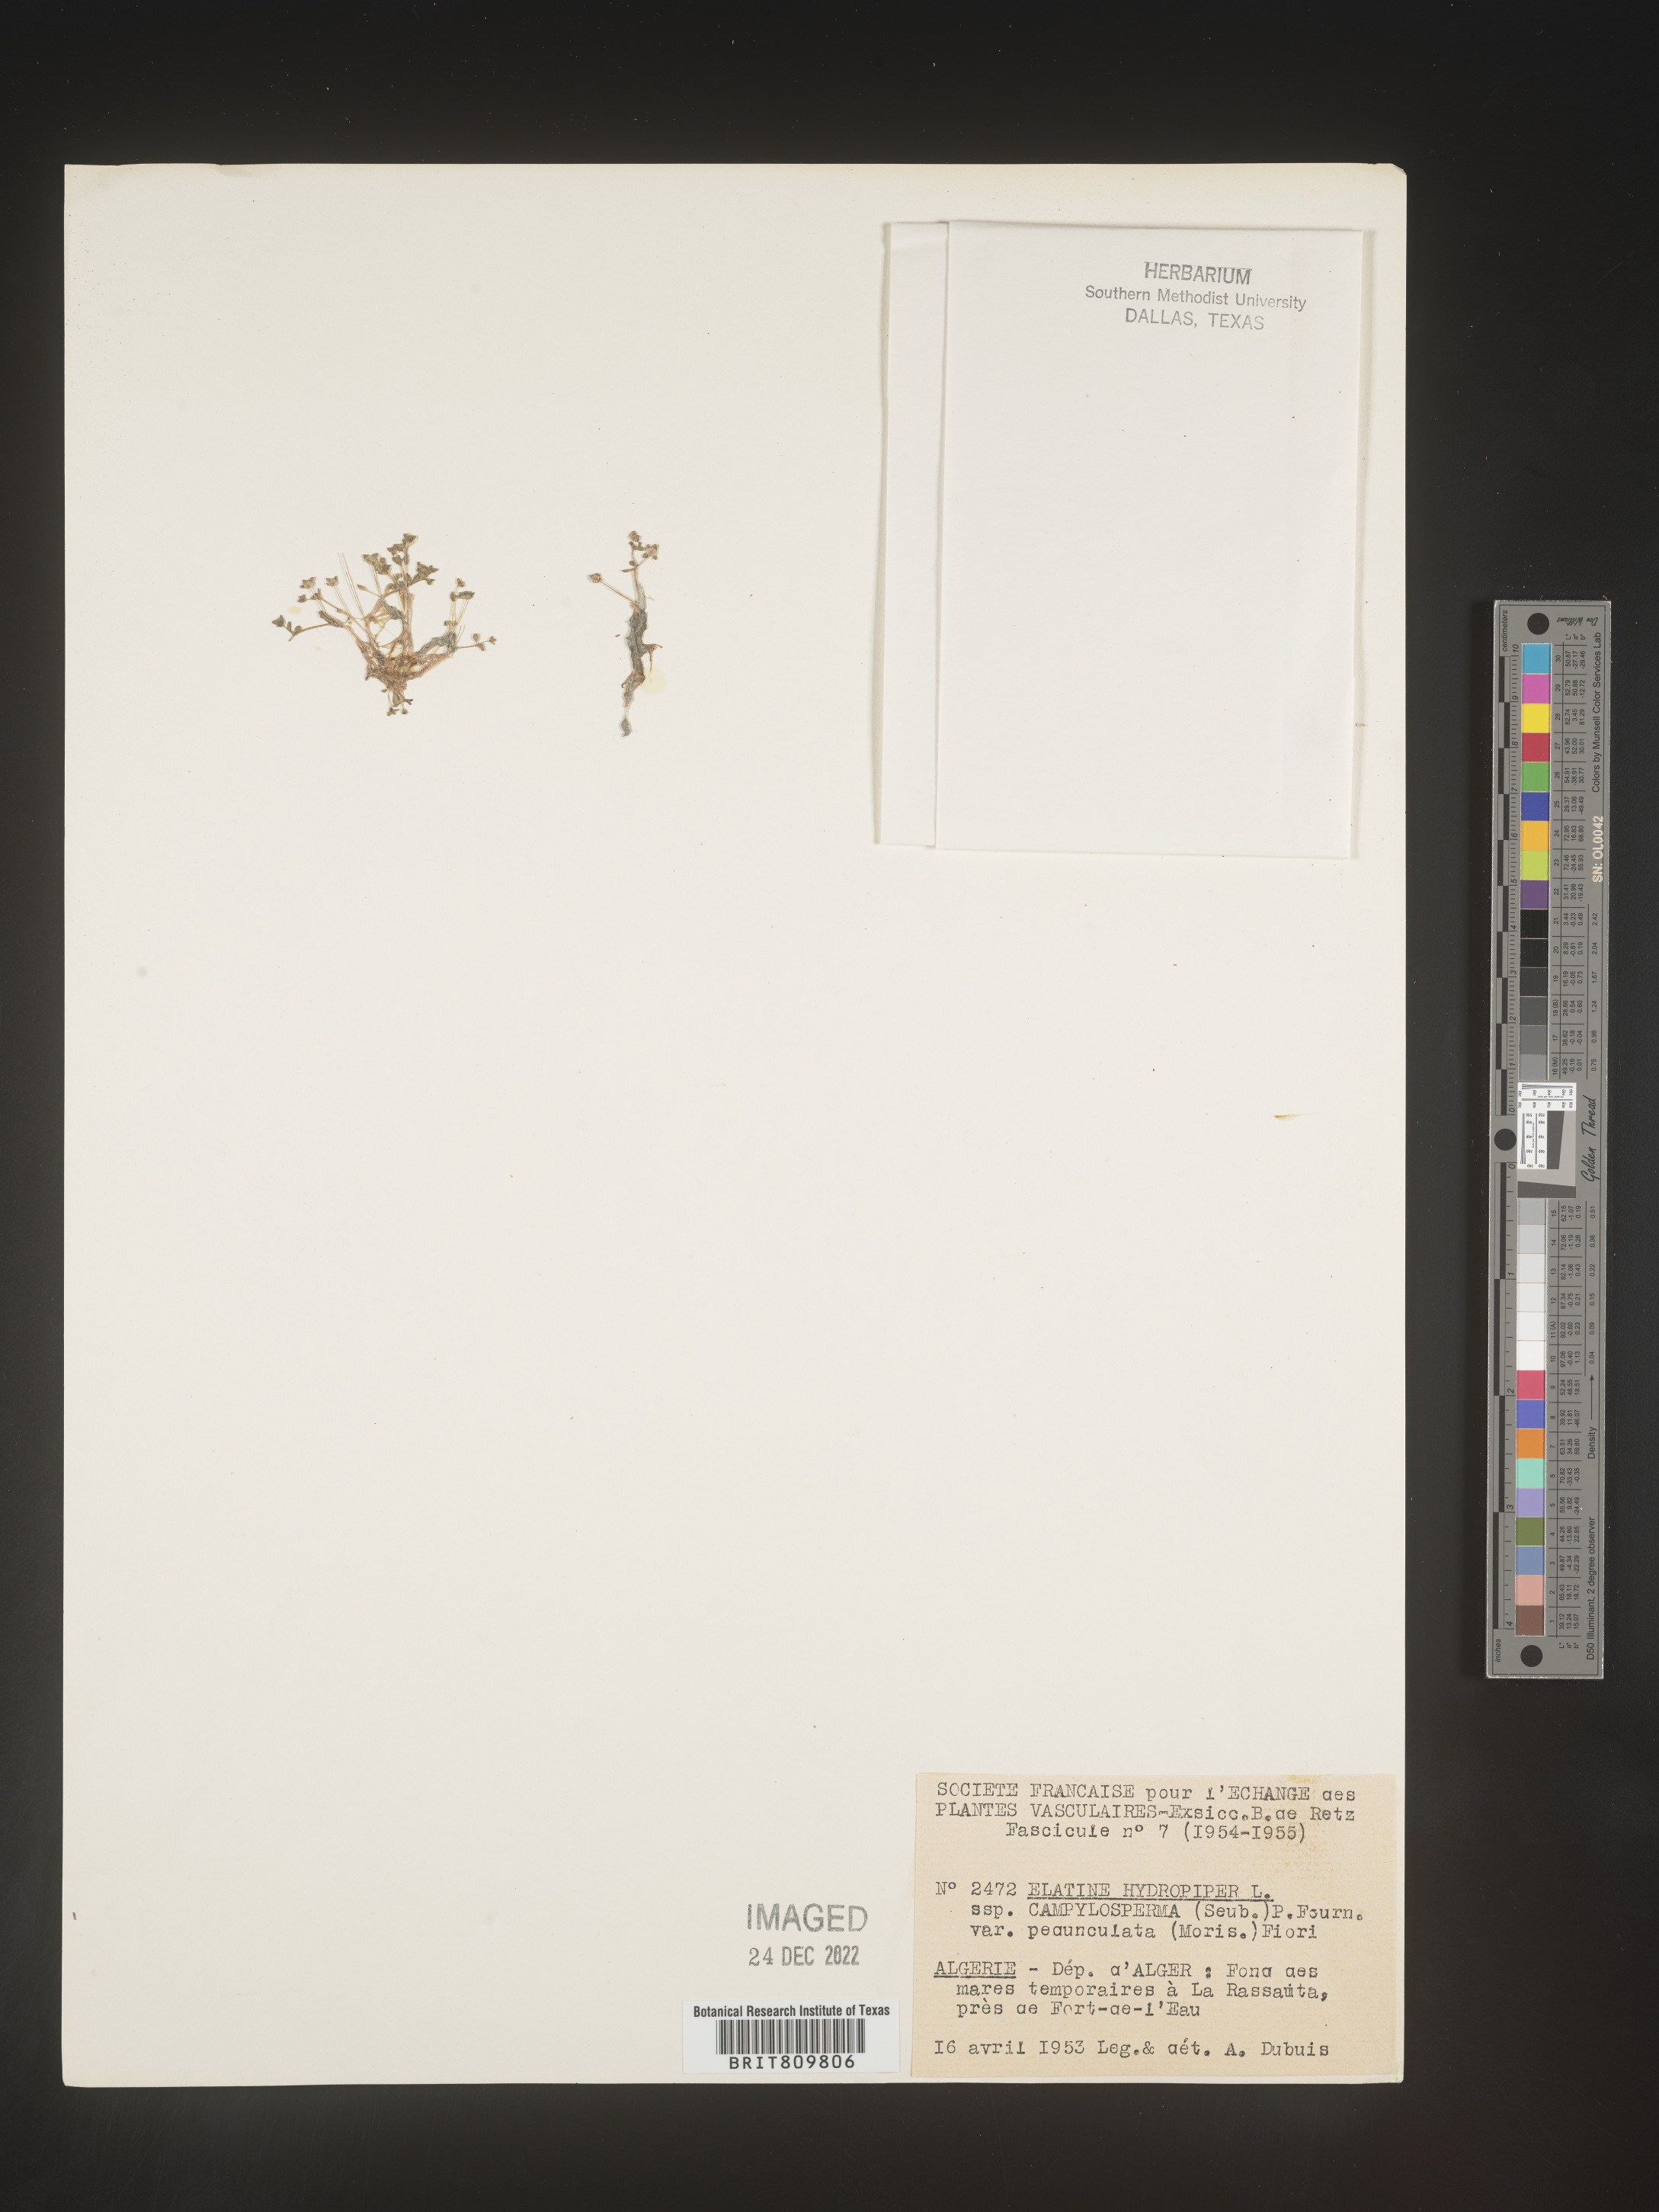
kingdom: Plantae
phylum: Tracheophyta
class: Magnoliopsida
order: Malpighiales
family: Elatinaceae
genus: Elatine
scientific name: Elatine
